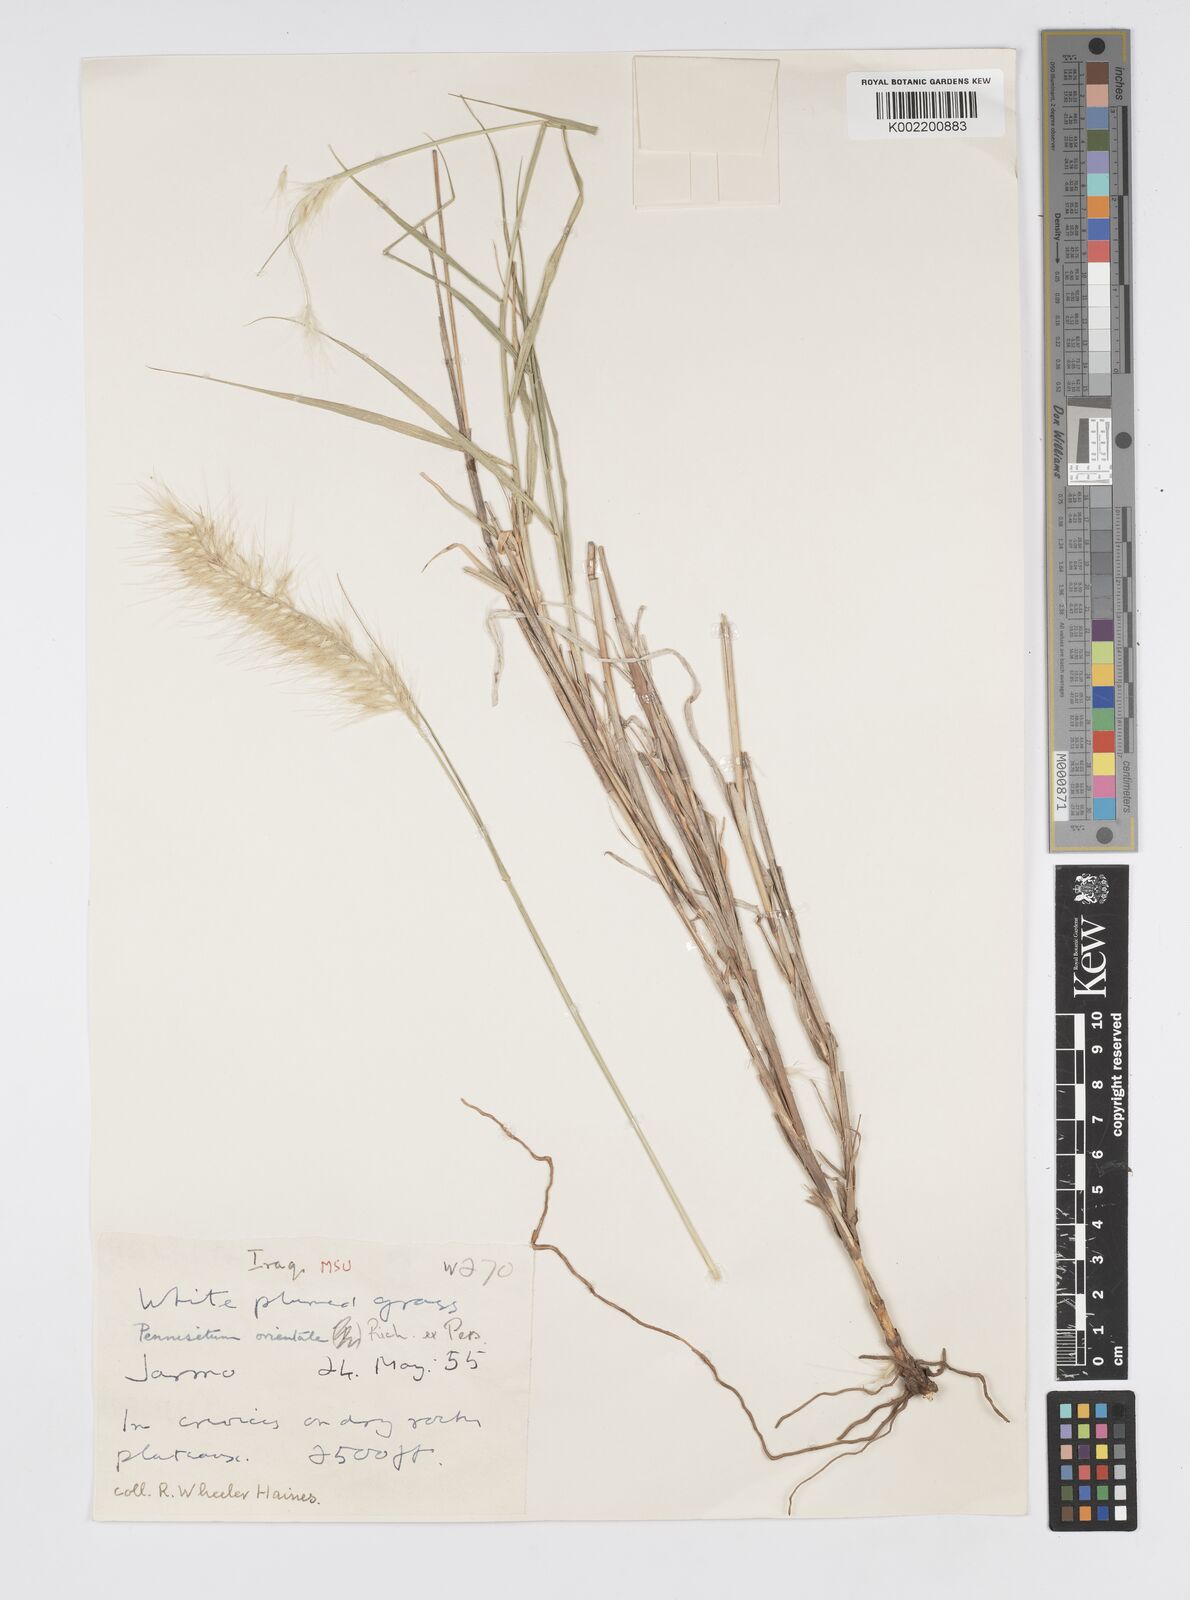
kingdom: Plantae
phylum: Tracheophyta
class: Liliopsida
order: Poales
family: Poaceae
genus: Cenchrus
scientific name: Cenchrus orientalis
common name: Oriental fountain grass
